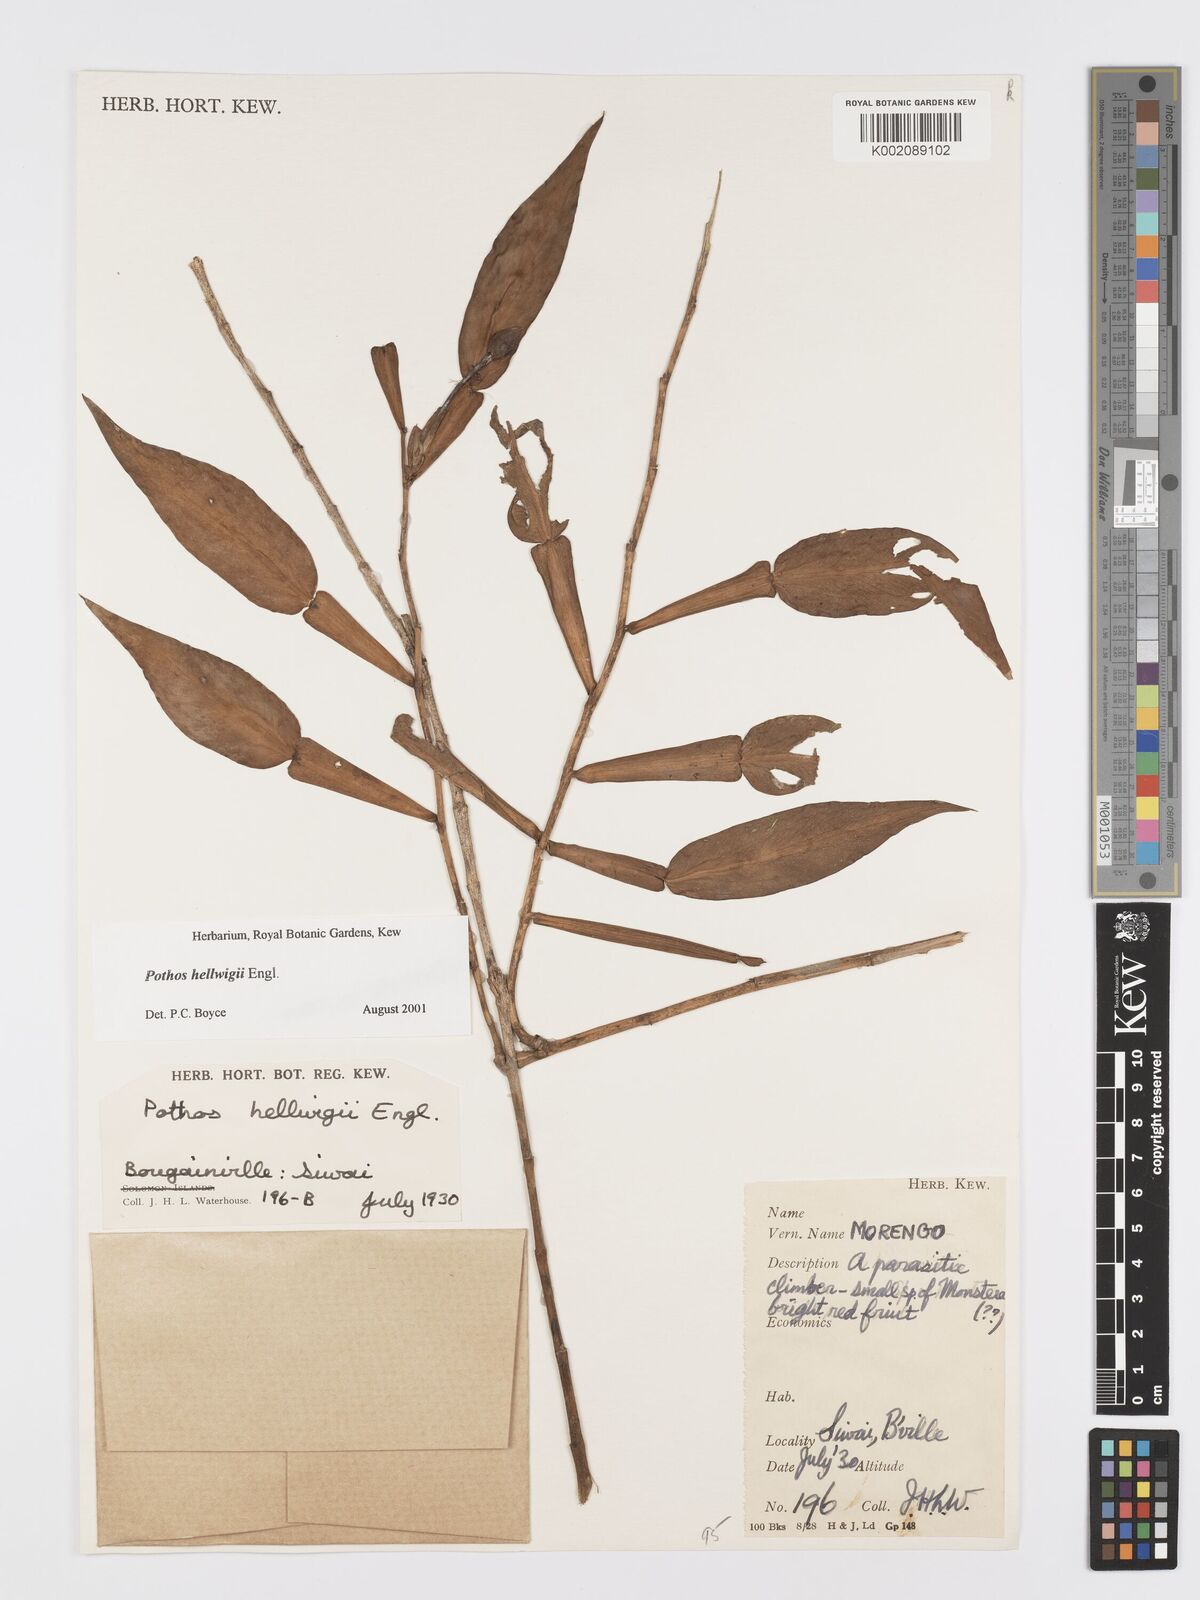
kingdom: Plantae
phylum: Tracheophyta
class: Liliopsida
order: Alismatales
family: Araceae
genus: Pothos
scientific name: Pothos hellwigii
